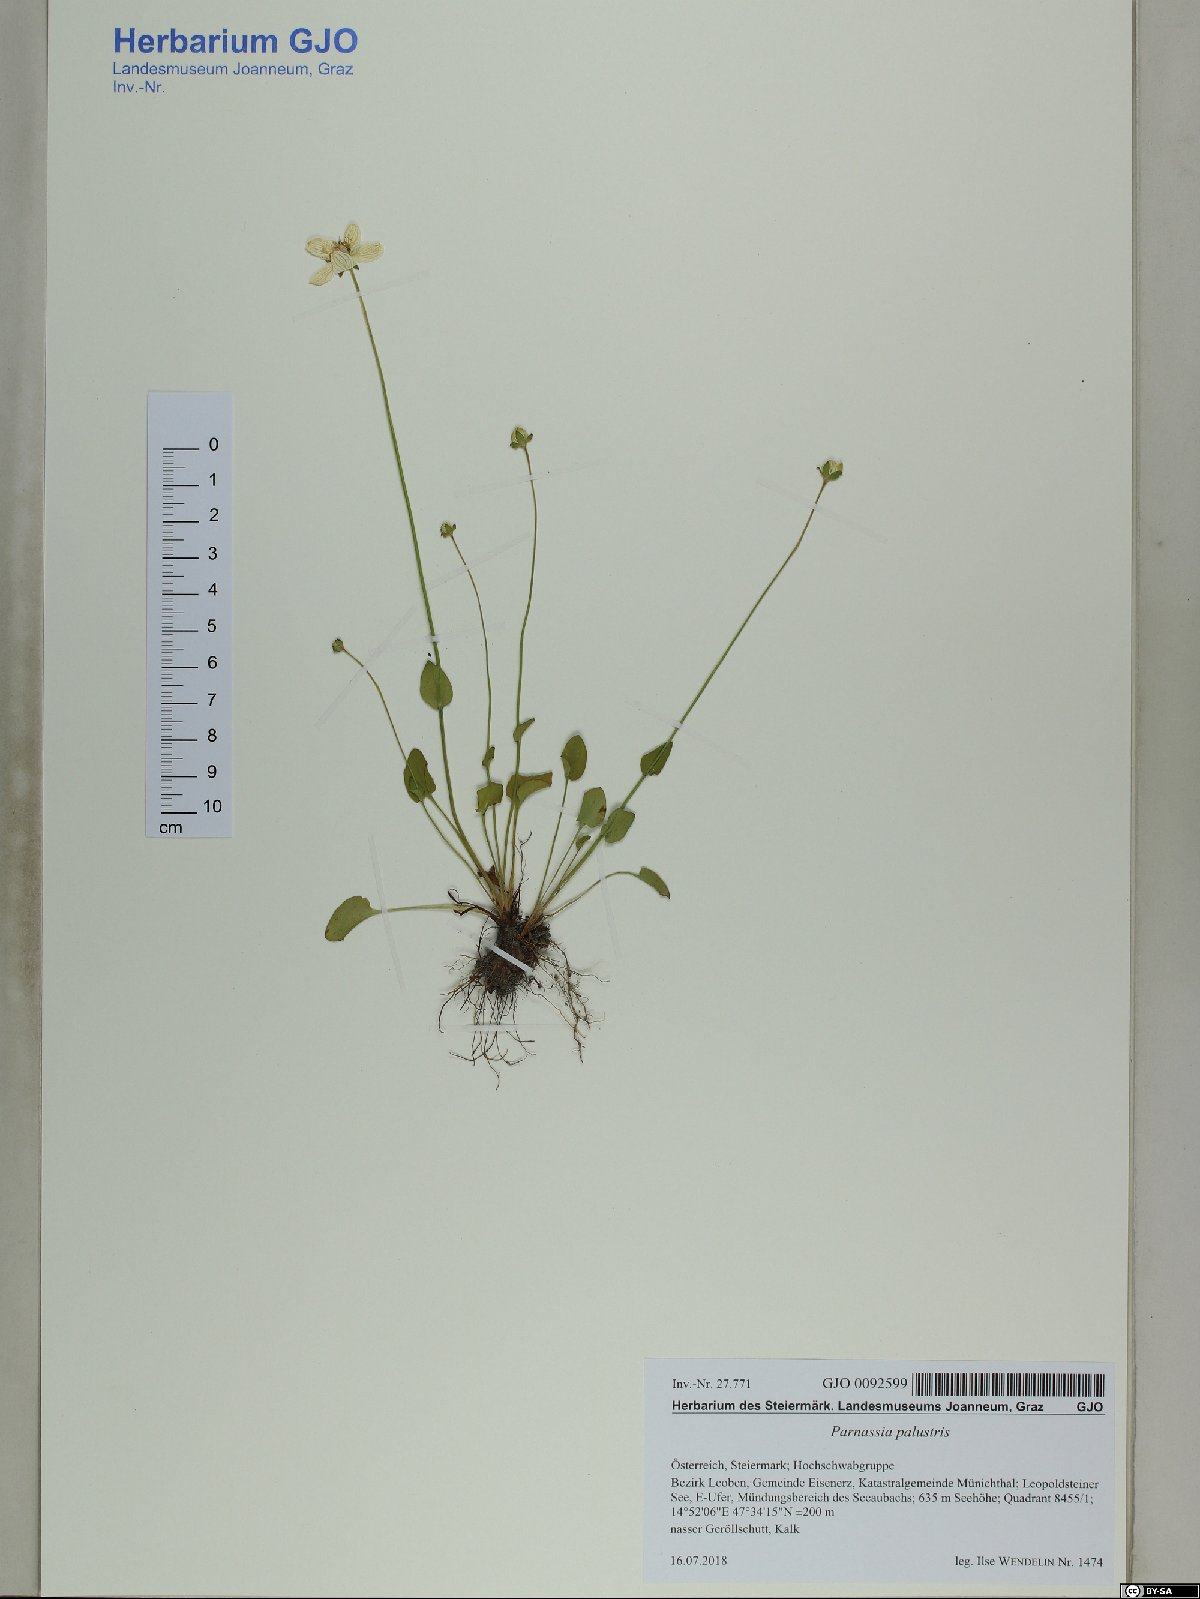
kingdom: Plantae
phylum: Tracheophyta
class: Magnoliopsida
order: Celastrales
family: Parnassiaceae
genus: Parnassia
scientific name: Parnassia palustris
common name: Grass-of-parnassus
